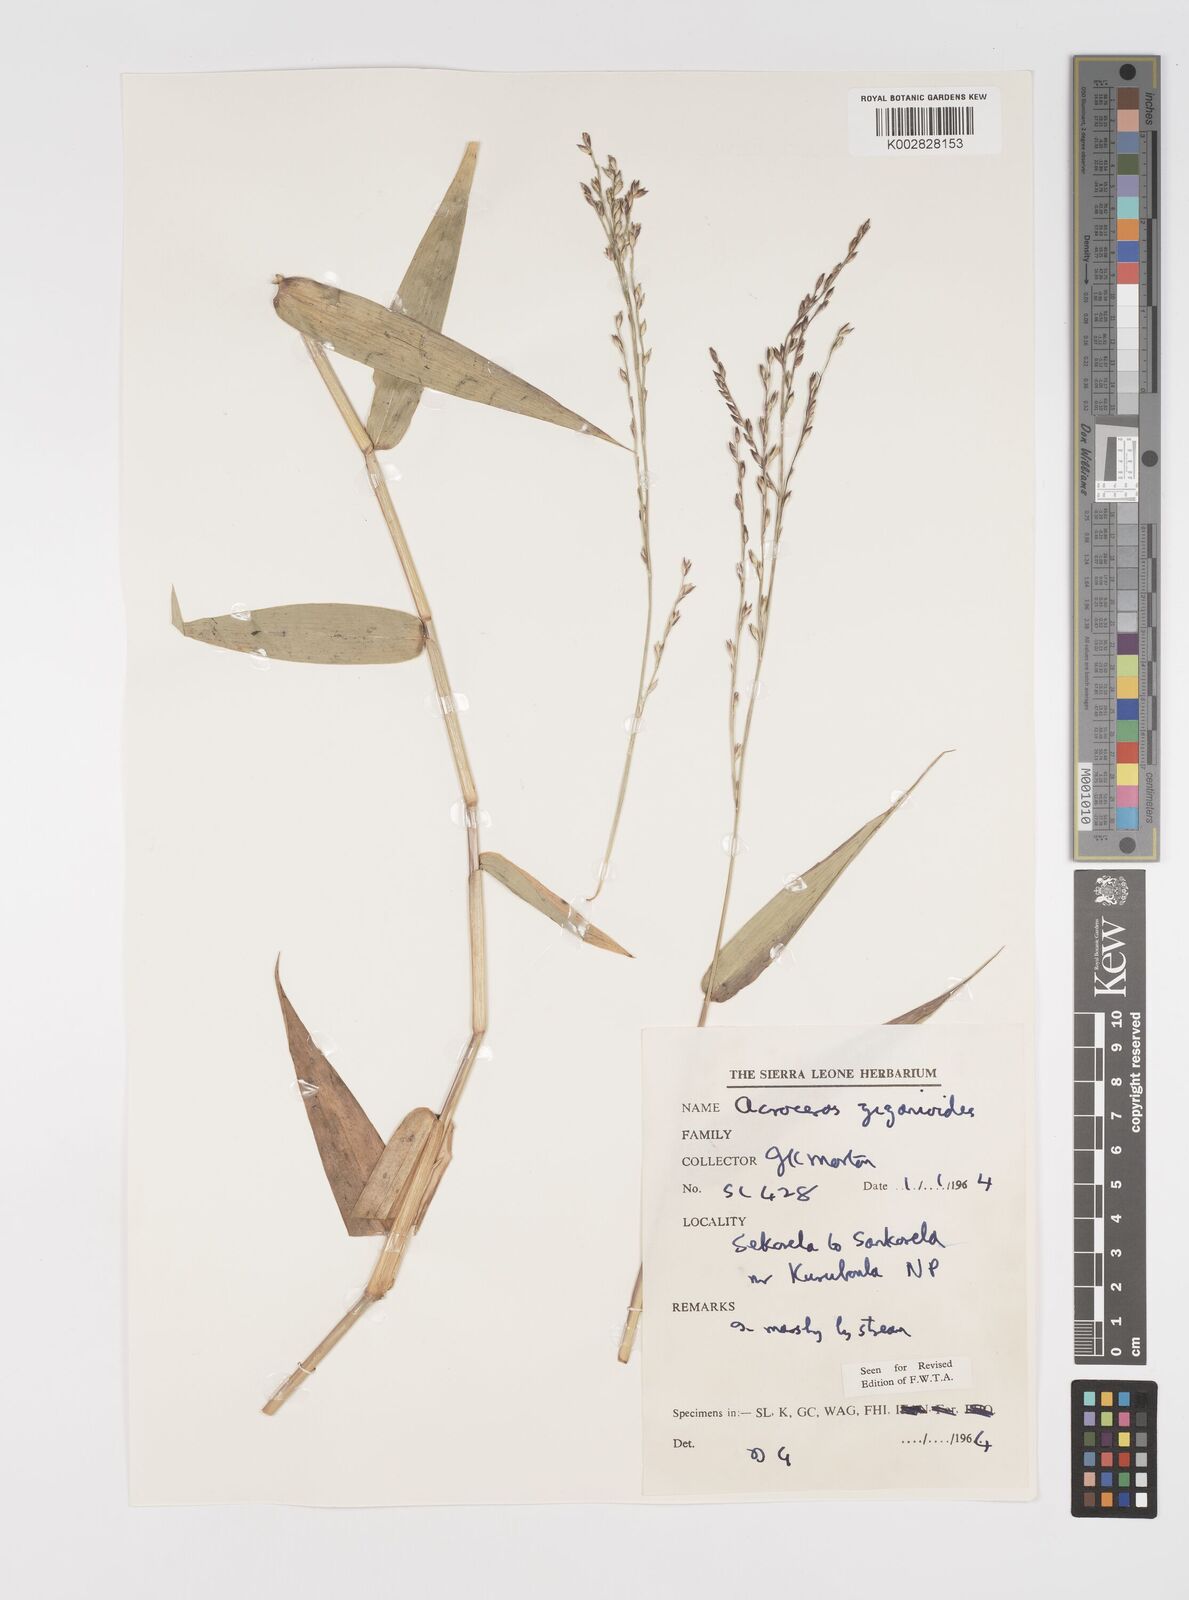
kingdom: Plantae
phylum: Tracheophyta
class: Liliopsida
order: Poales
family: Poaceae
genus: Acroceras
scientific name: Acroceras zizanioides
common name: Oat grass
